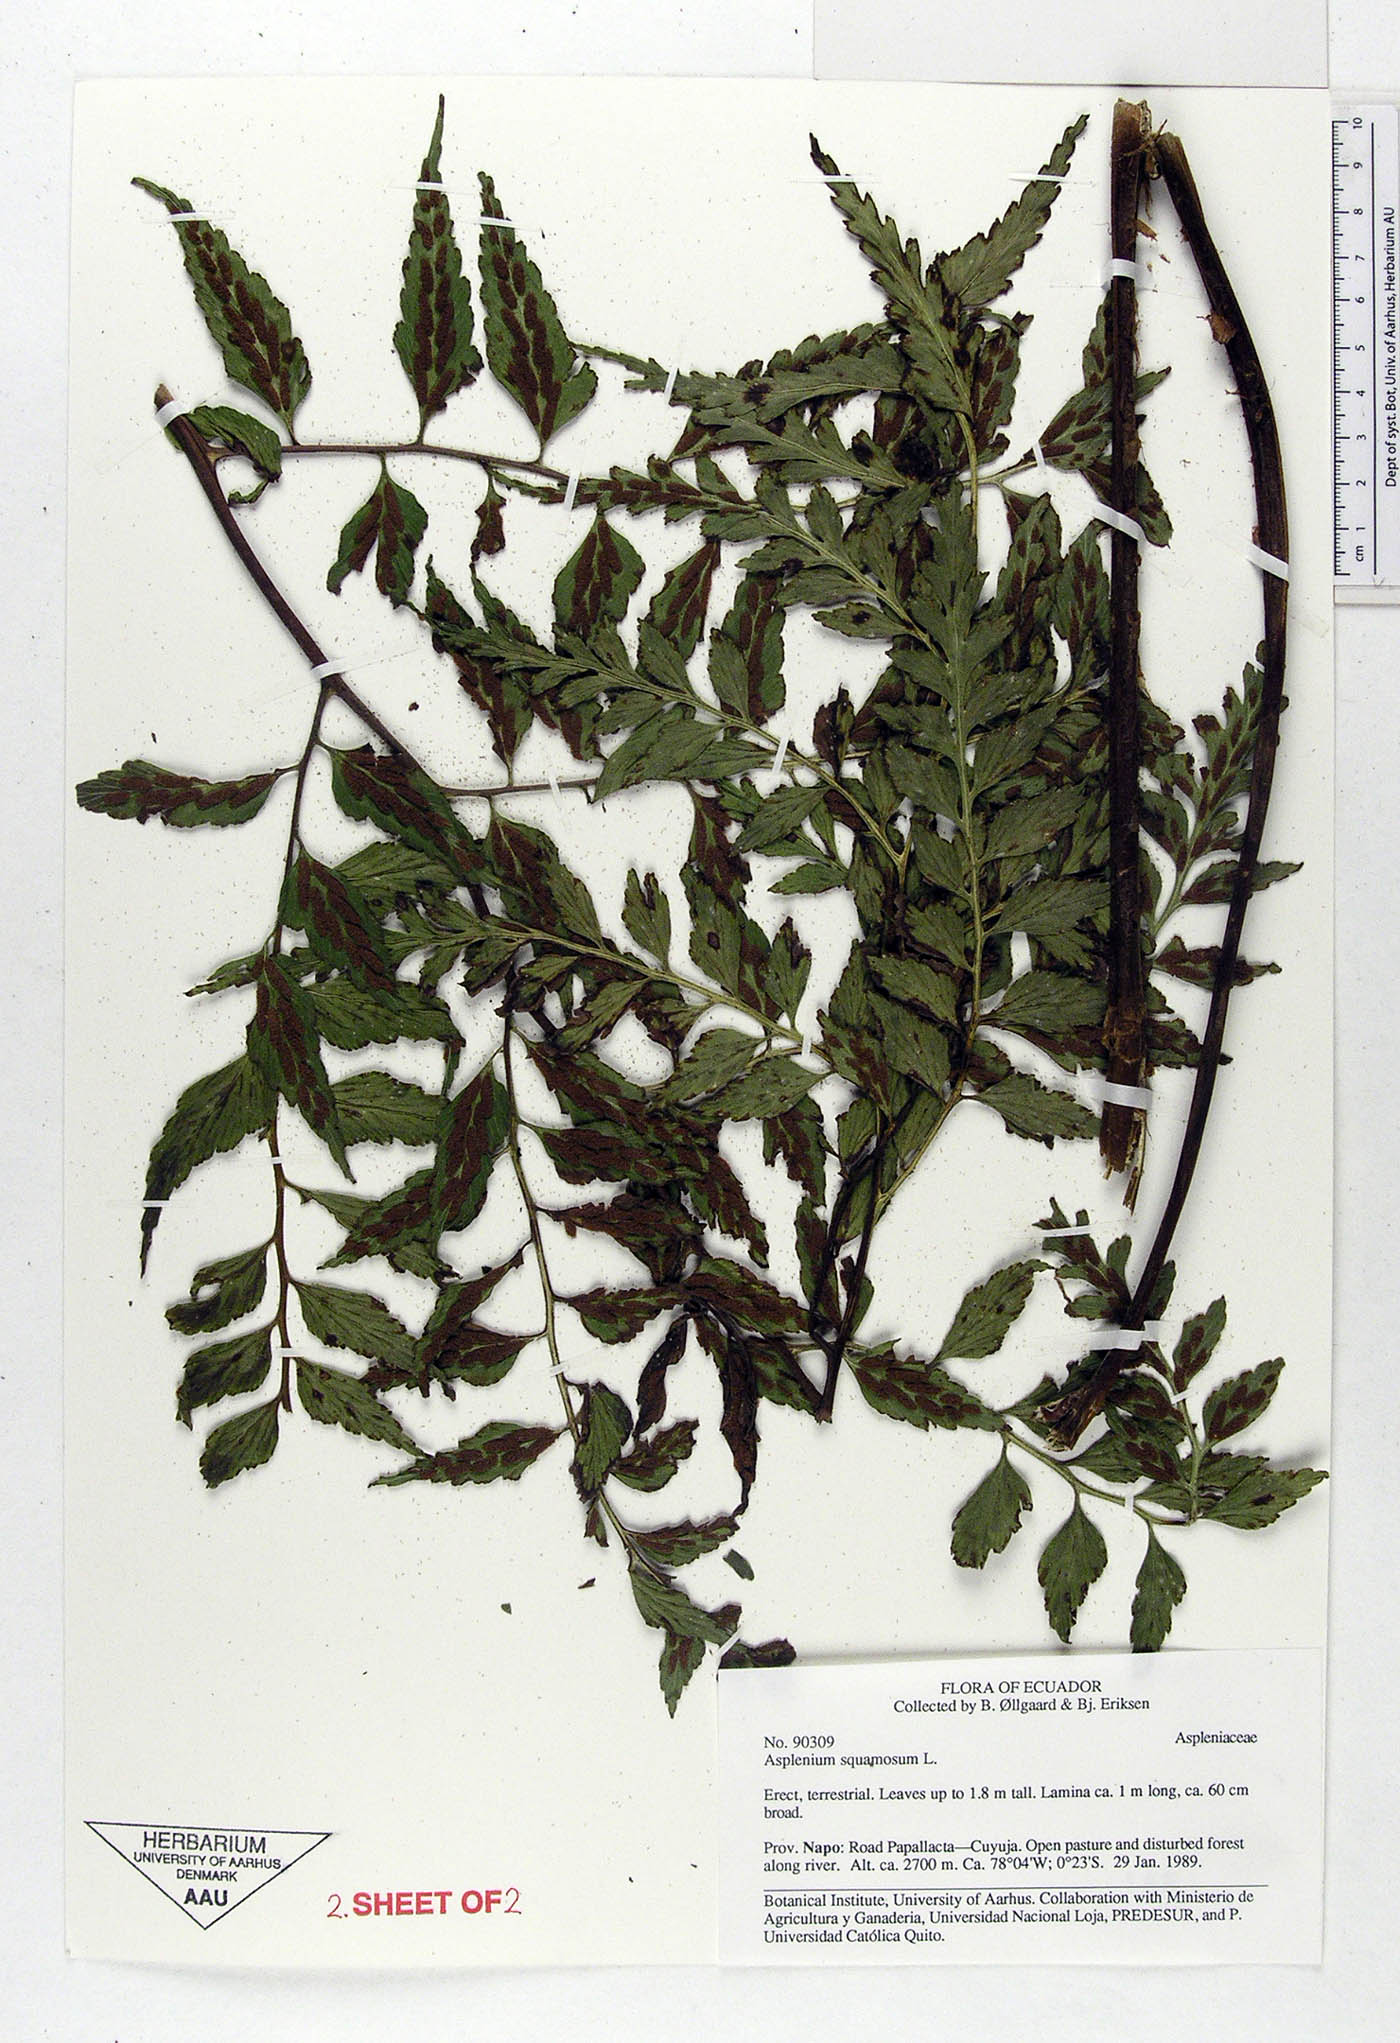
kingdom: Plantae
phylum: Tracheophyta
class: Polypodiopsida
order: Polypodiales
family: Aspleniaceae
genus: Asplenium
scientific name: Asplenium squamosum
